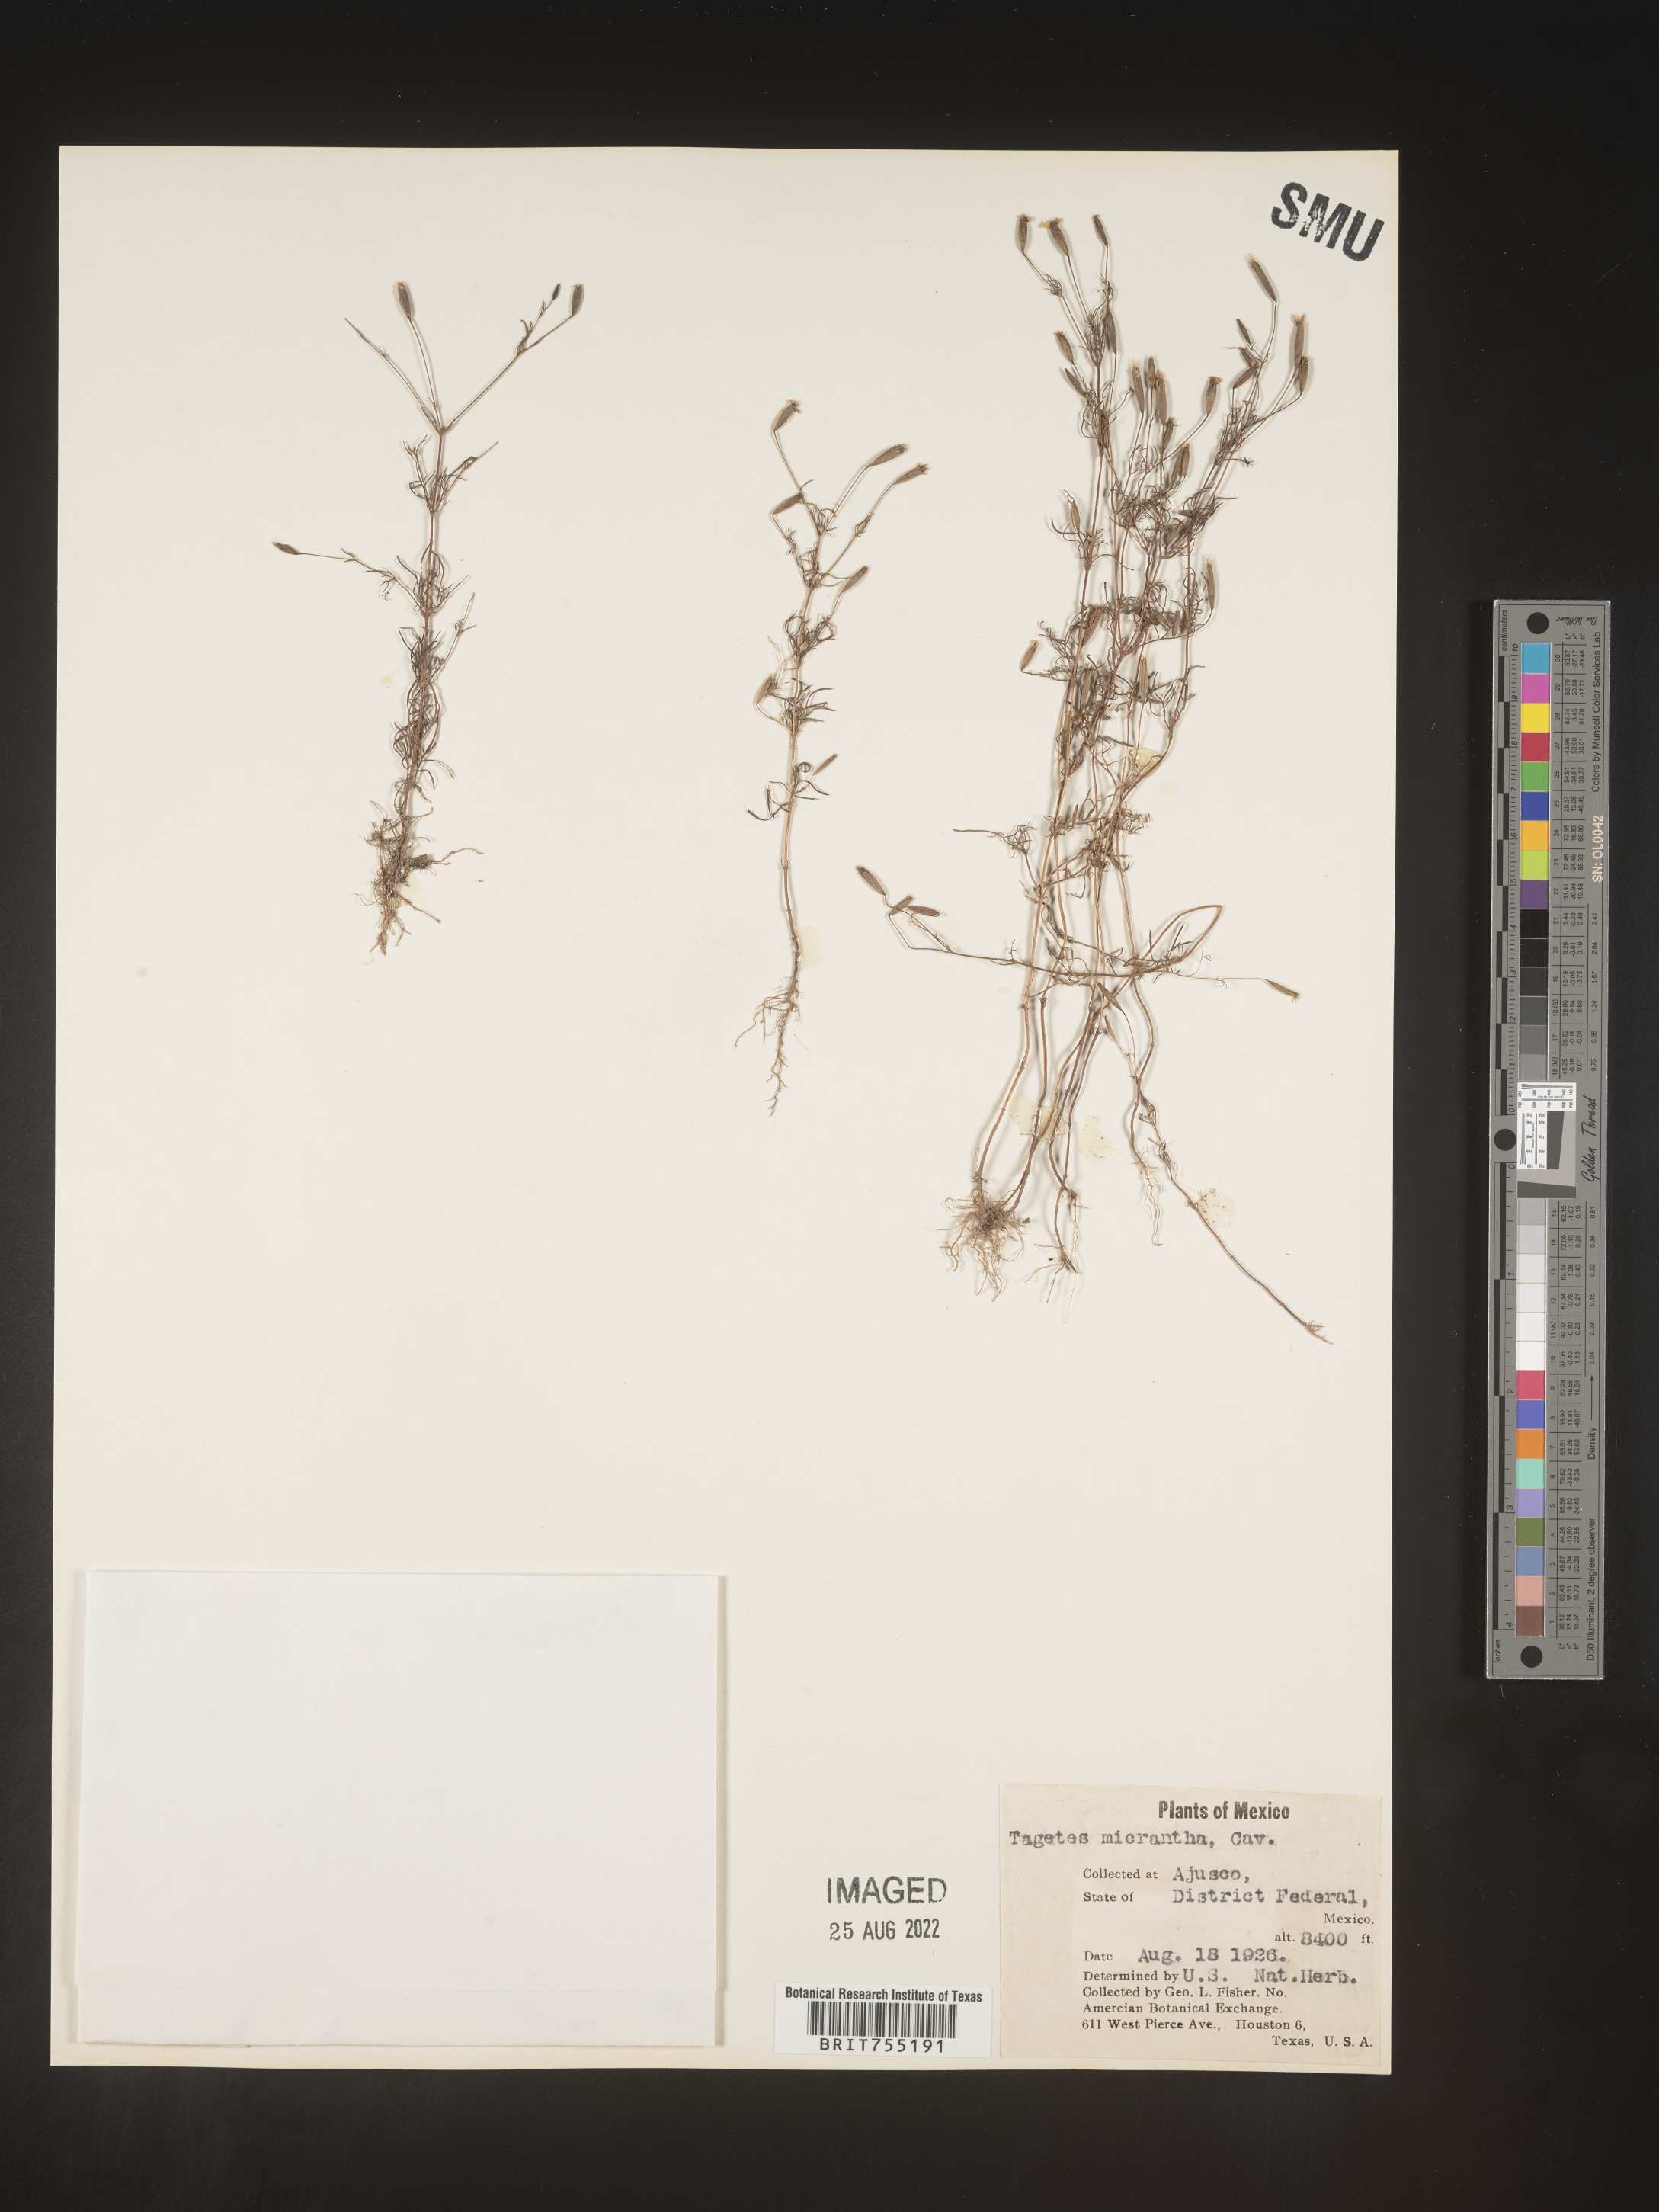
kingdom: Plantae
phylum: Tracheophyta
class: Magnoliopsida
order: Asterales
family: Asteraceae
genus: Tagetes
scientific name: Tagetes
